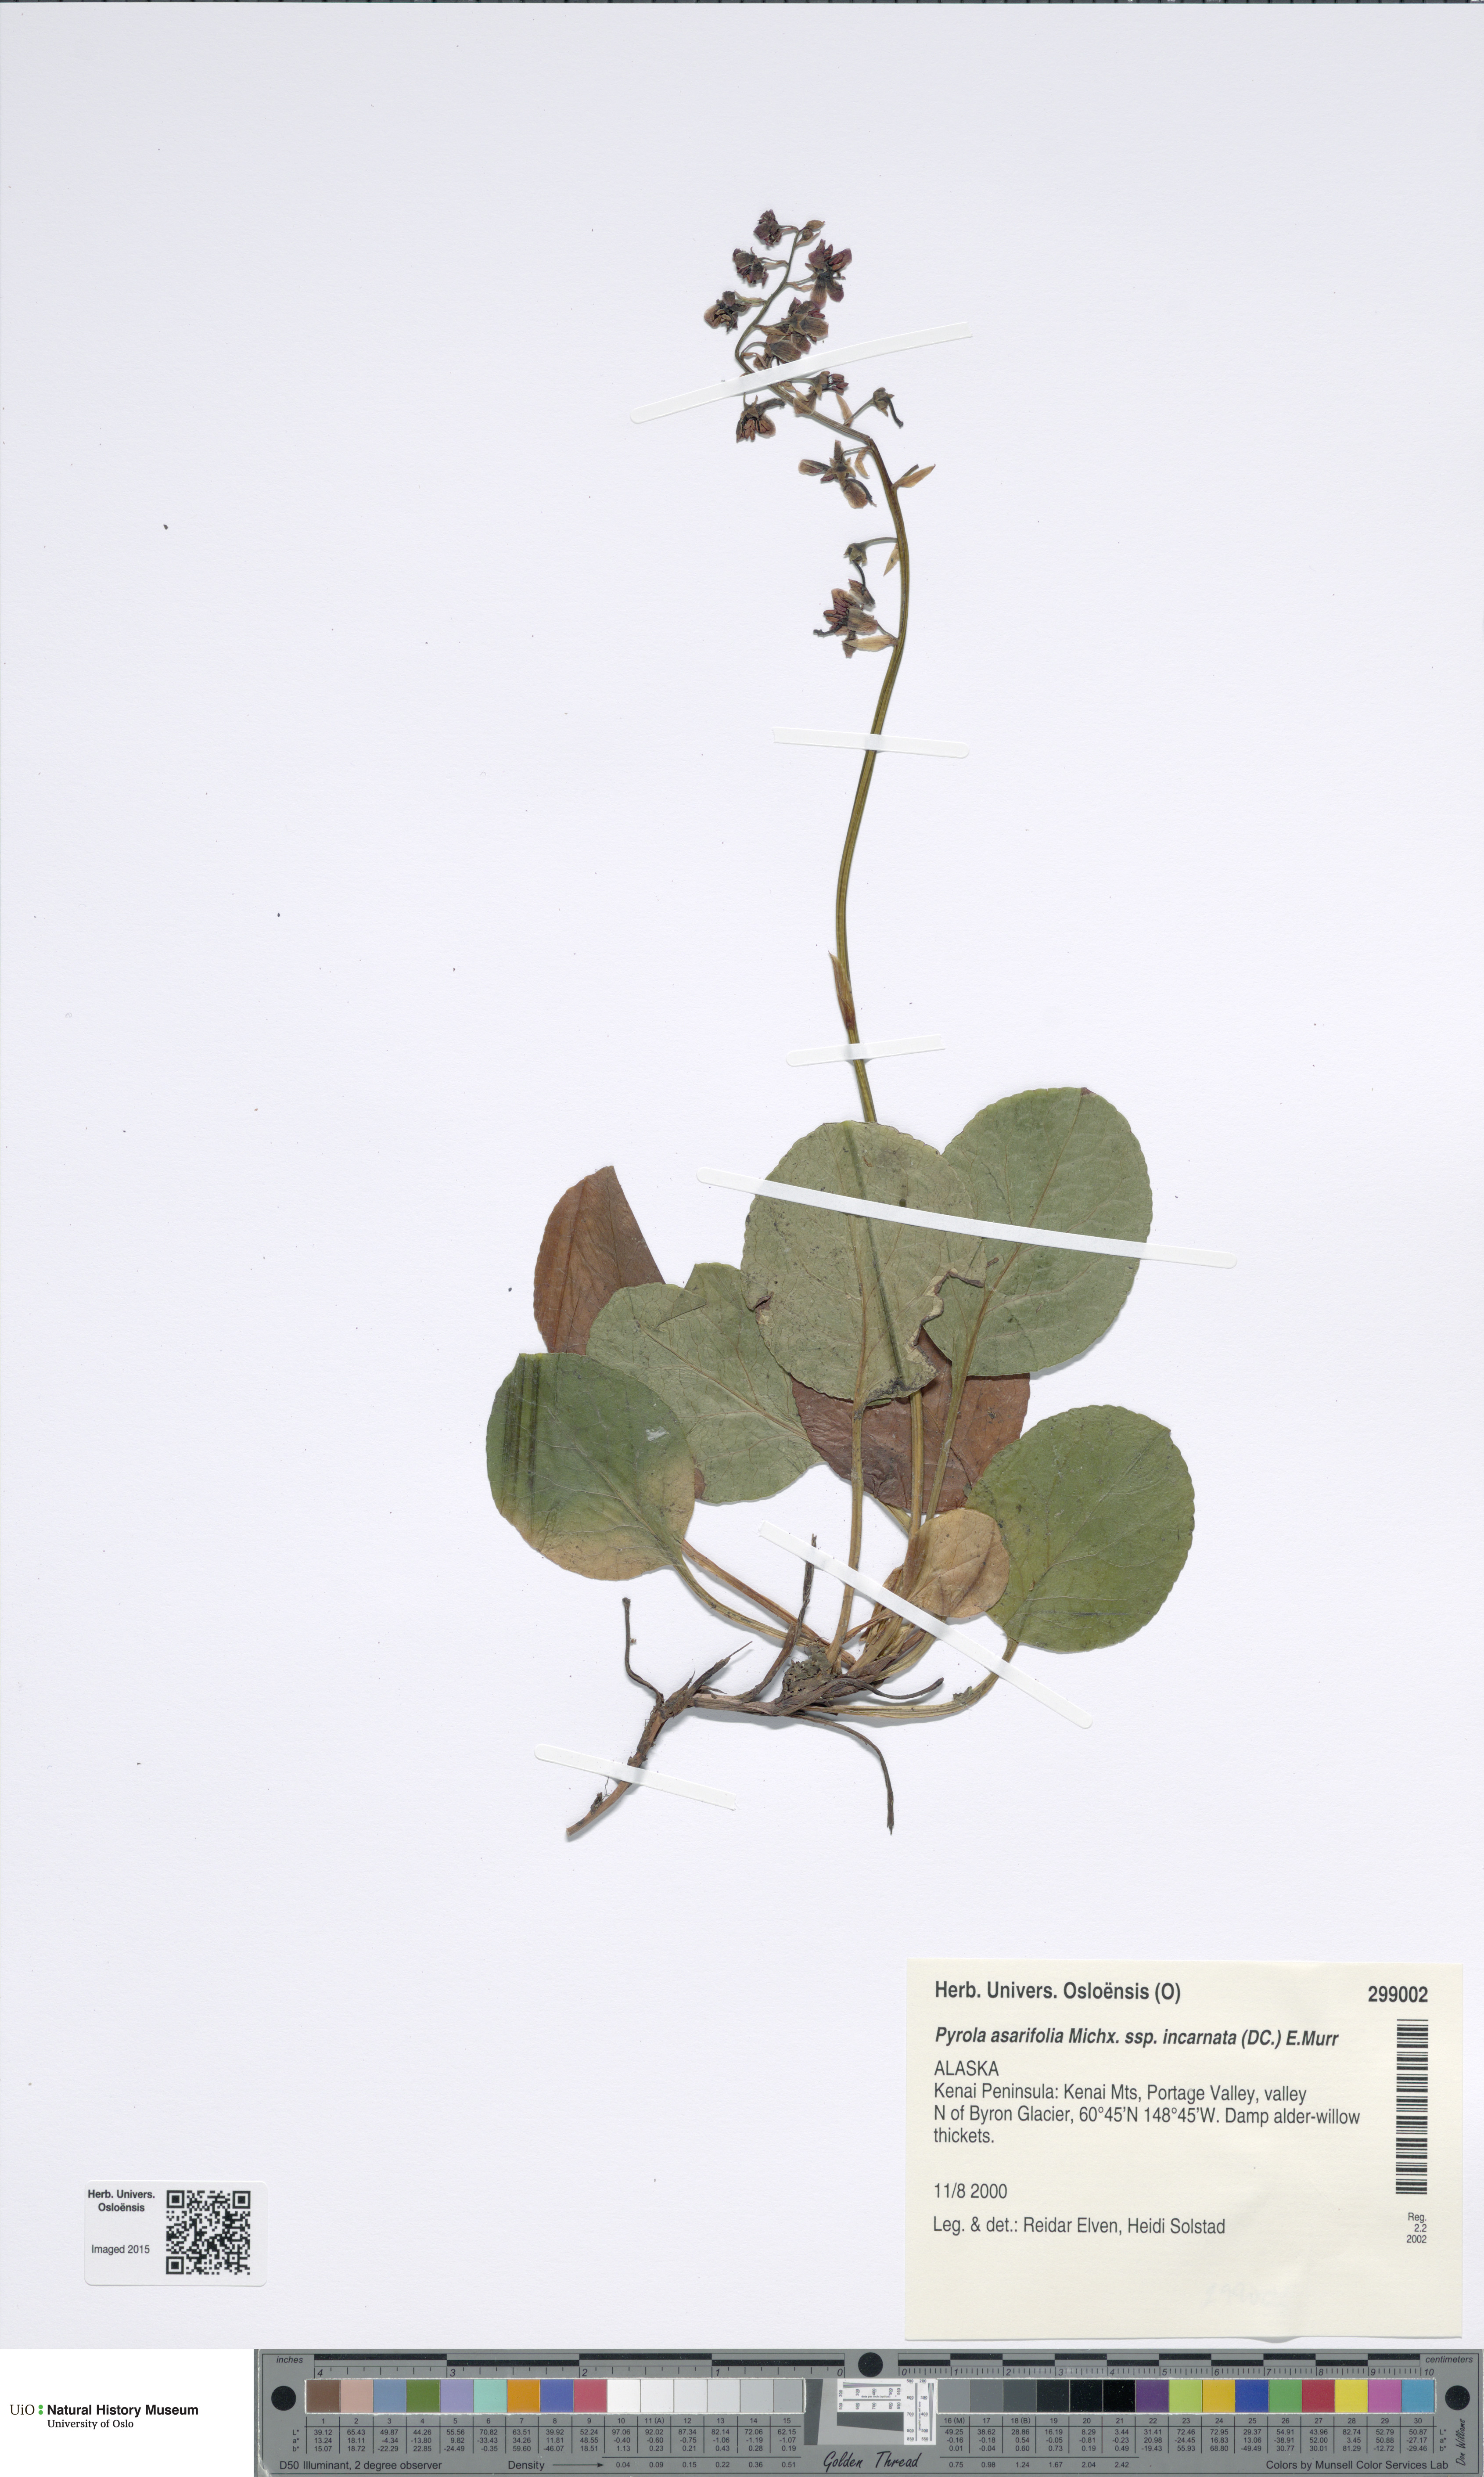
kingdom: Plantae
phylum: Tracheophyta
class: Magnoliopsida
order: Ericales
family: Ericaceae
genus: Pyrola
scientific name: Pyrola asarifolia
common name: Bog wintergreen
